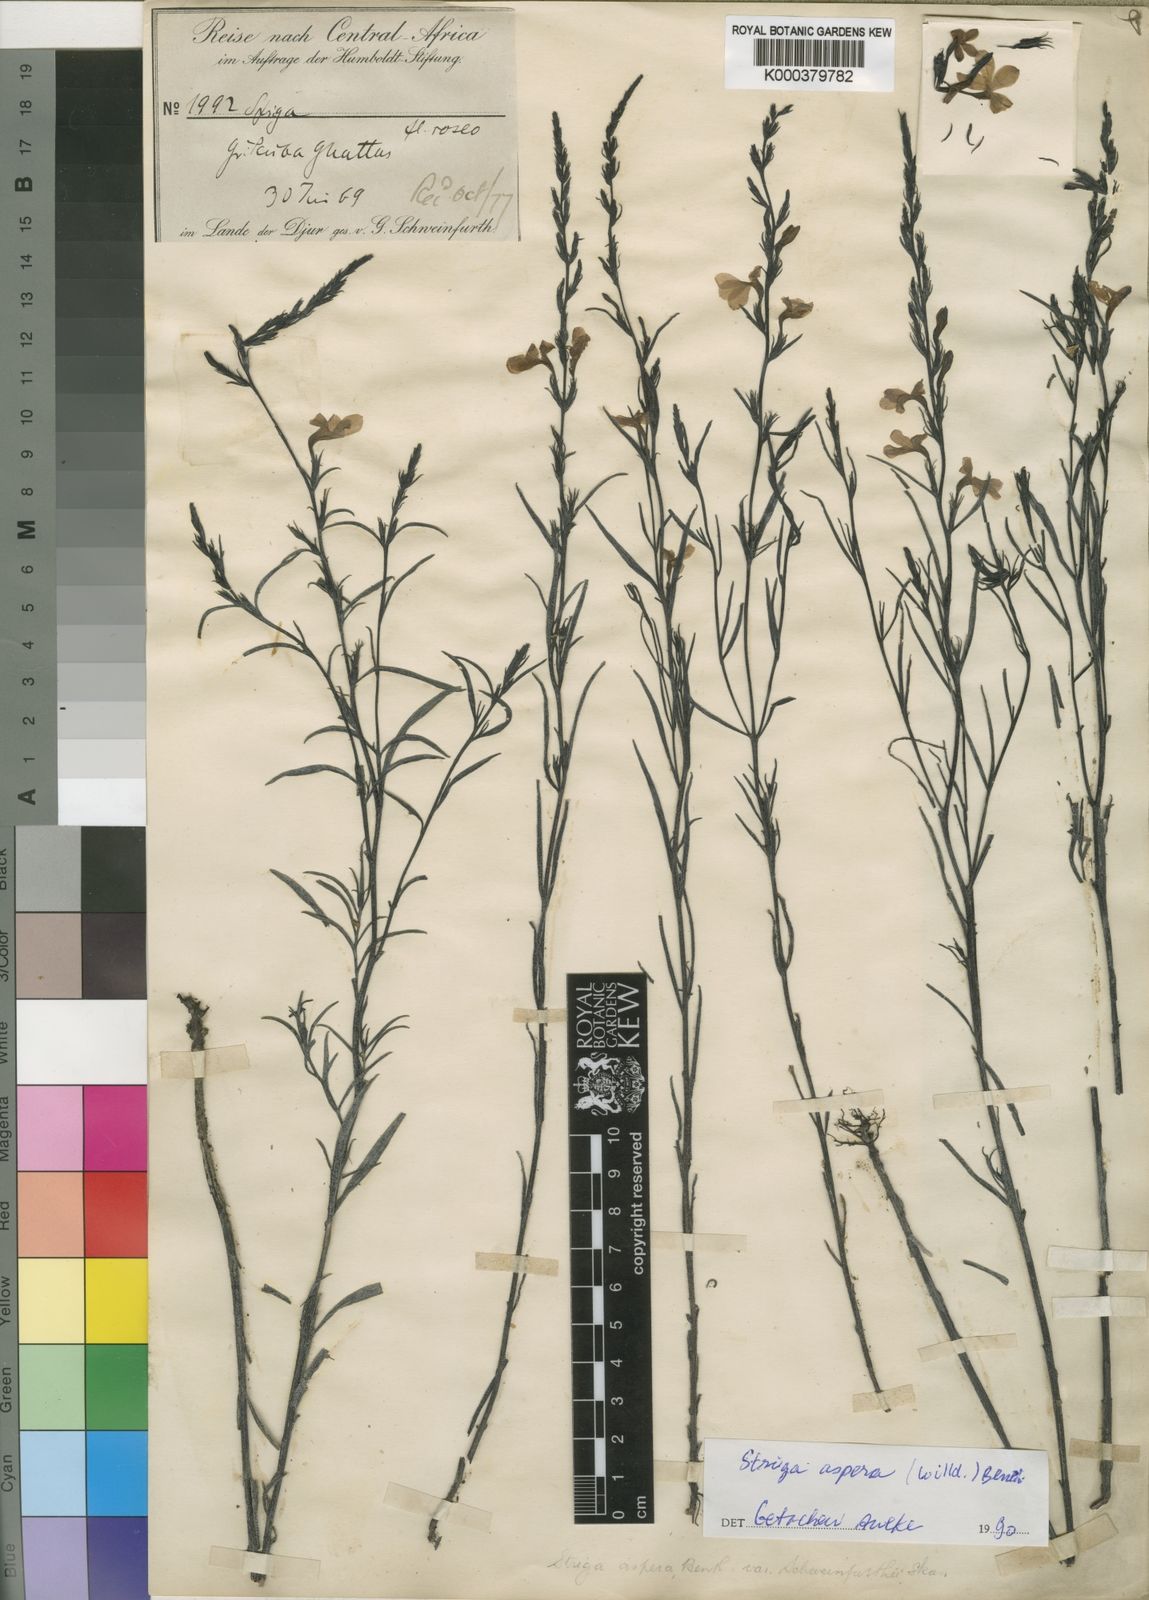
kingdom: Plantae
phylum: Tracheophyta
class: Magnoliopsida
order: Lamiales
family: Orobanchaceae
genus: Striga
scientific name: Striga aspera
